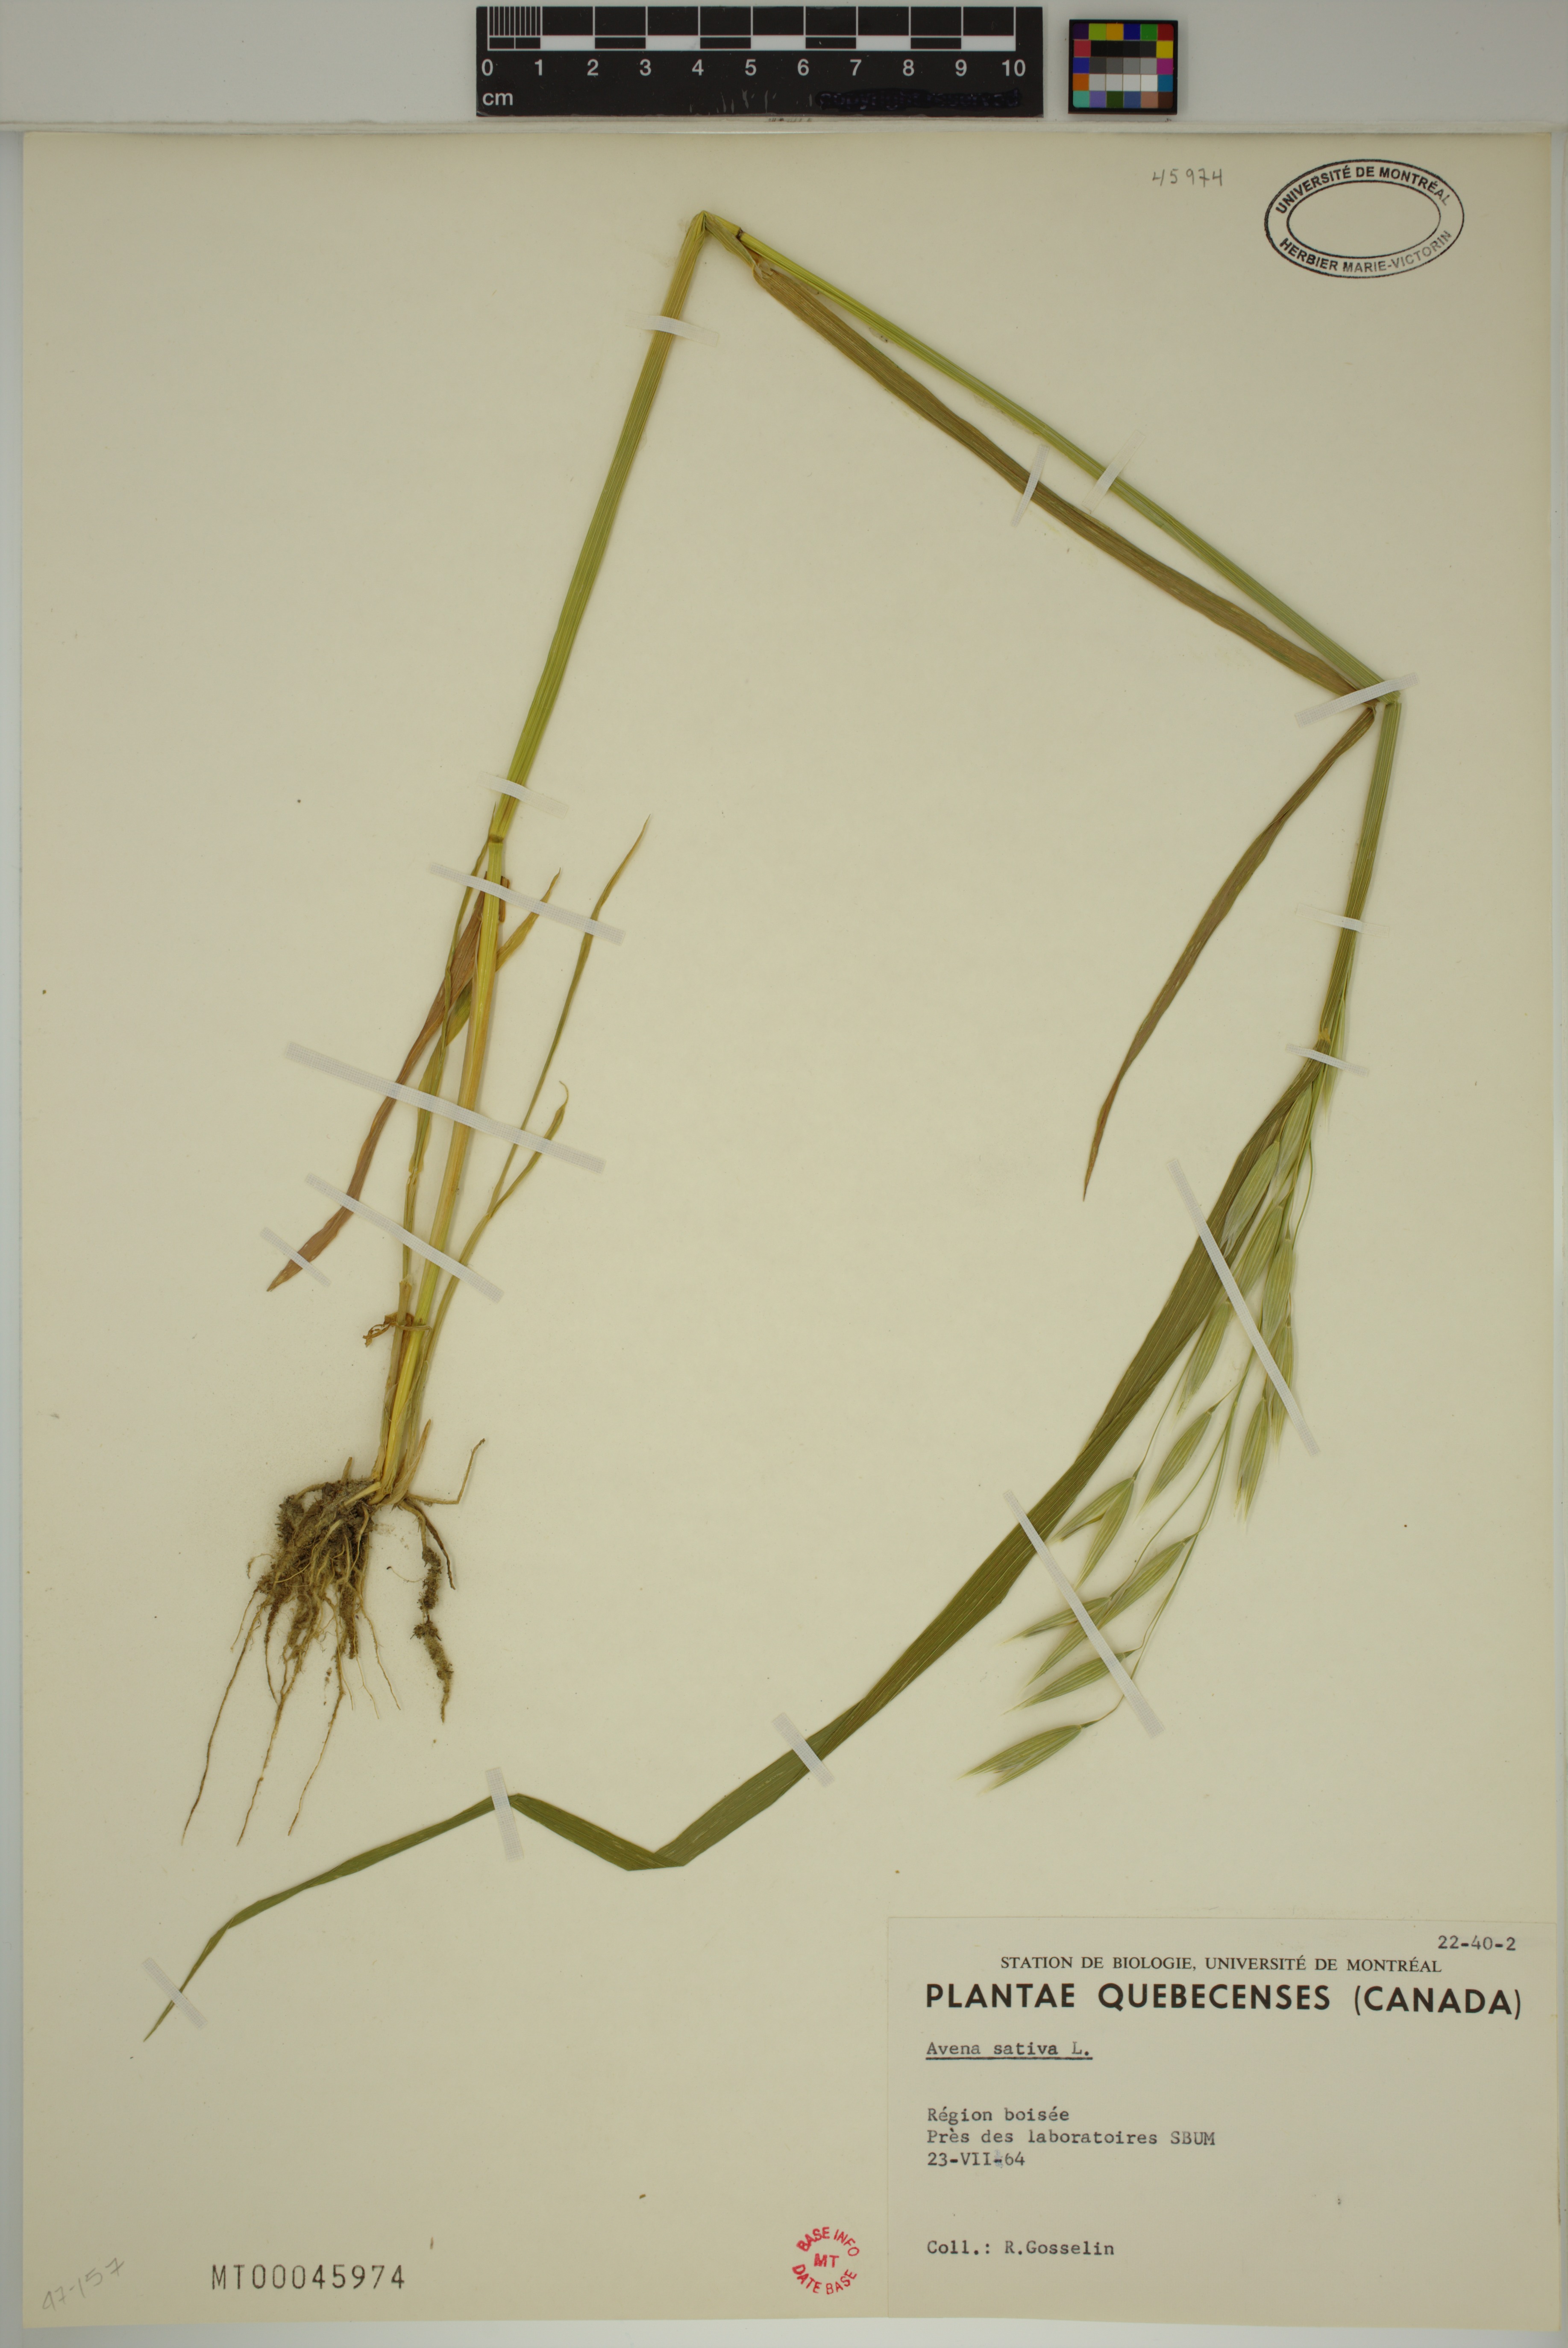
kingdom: Plantae
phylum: Tracheophyta
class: Liliopsida
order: Poales
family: Poaceae
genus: Avena
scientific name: Avena sativa
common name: Oat
